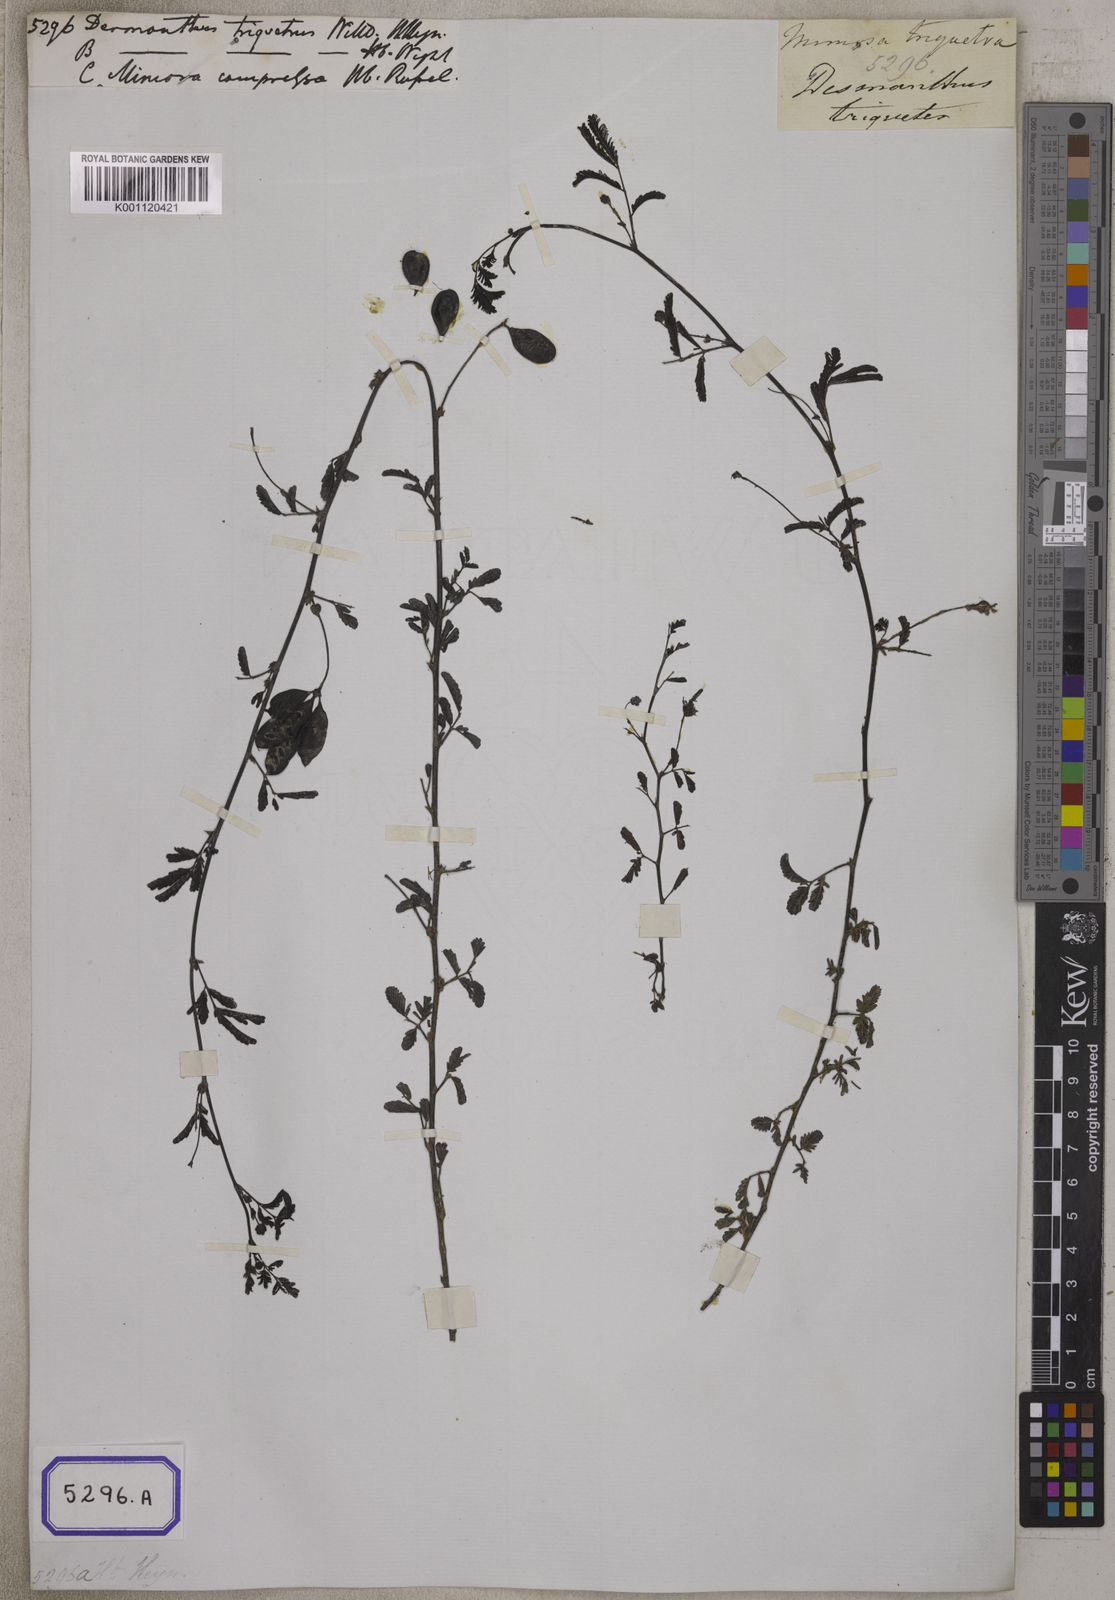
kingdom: Plantae
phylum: Tracheophyta
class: Magnoliopsida
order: Fabales
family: Fabaceae
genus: Neptunia
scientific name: Neptunia triquetra
